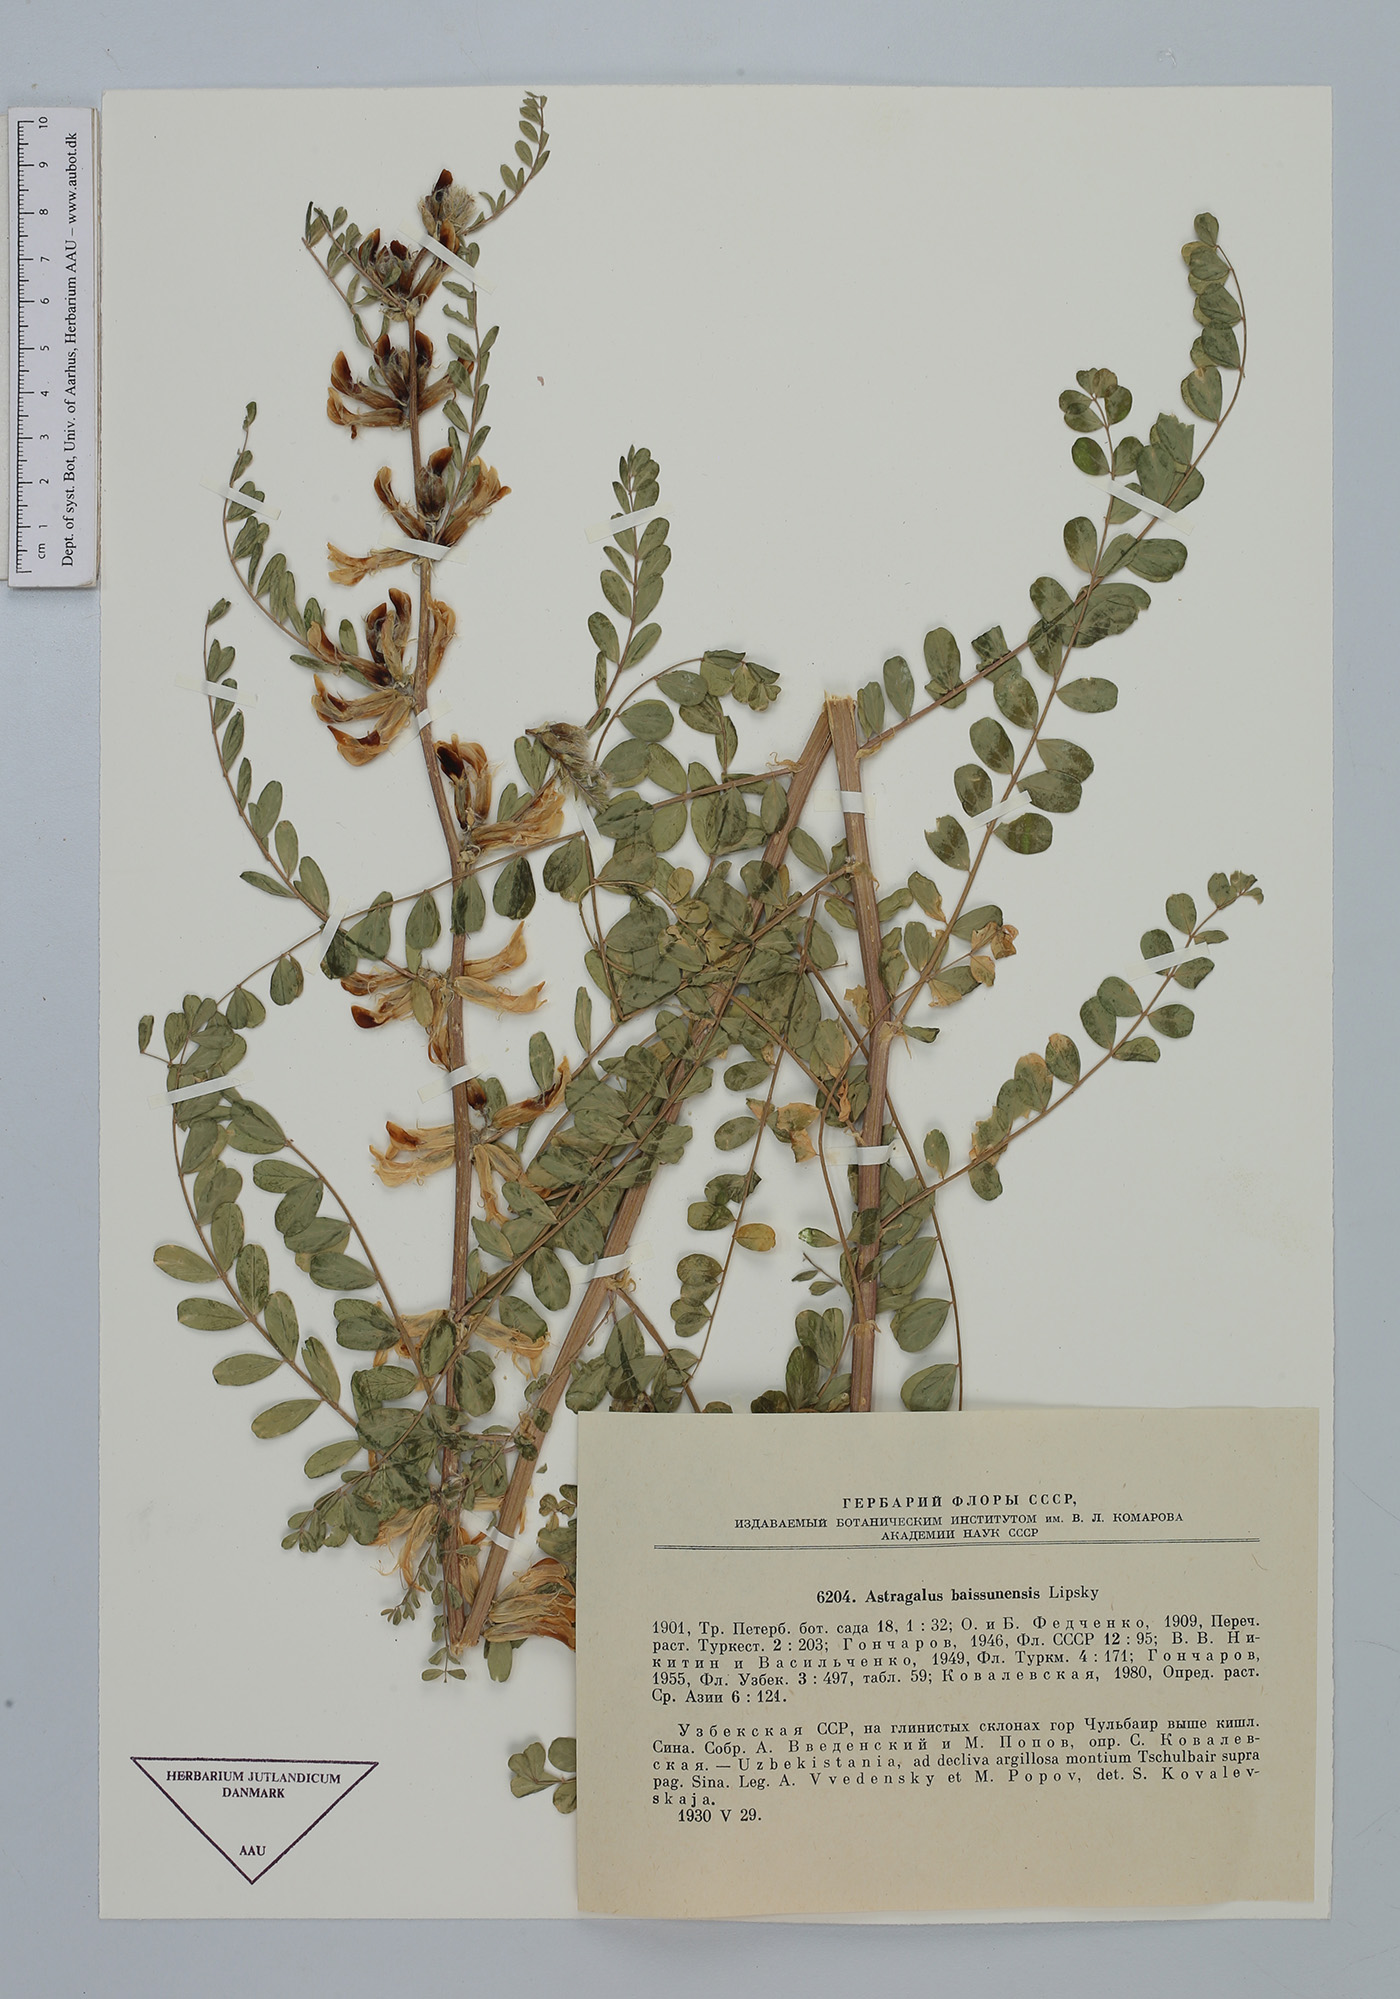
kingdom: Plantae
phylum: Tracheophyta
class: Magnoliopsida
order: Fabales
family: Fabaceae
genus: Astragalus
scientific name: Astragalus baissunensis
